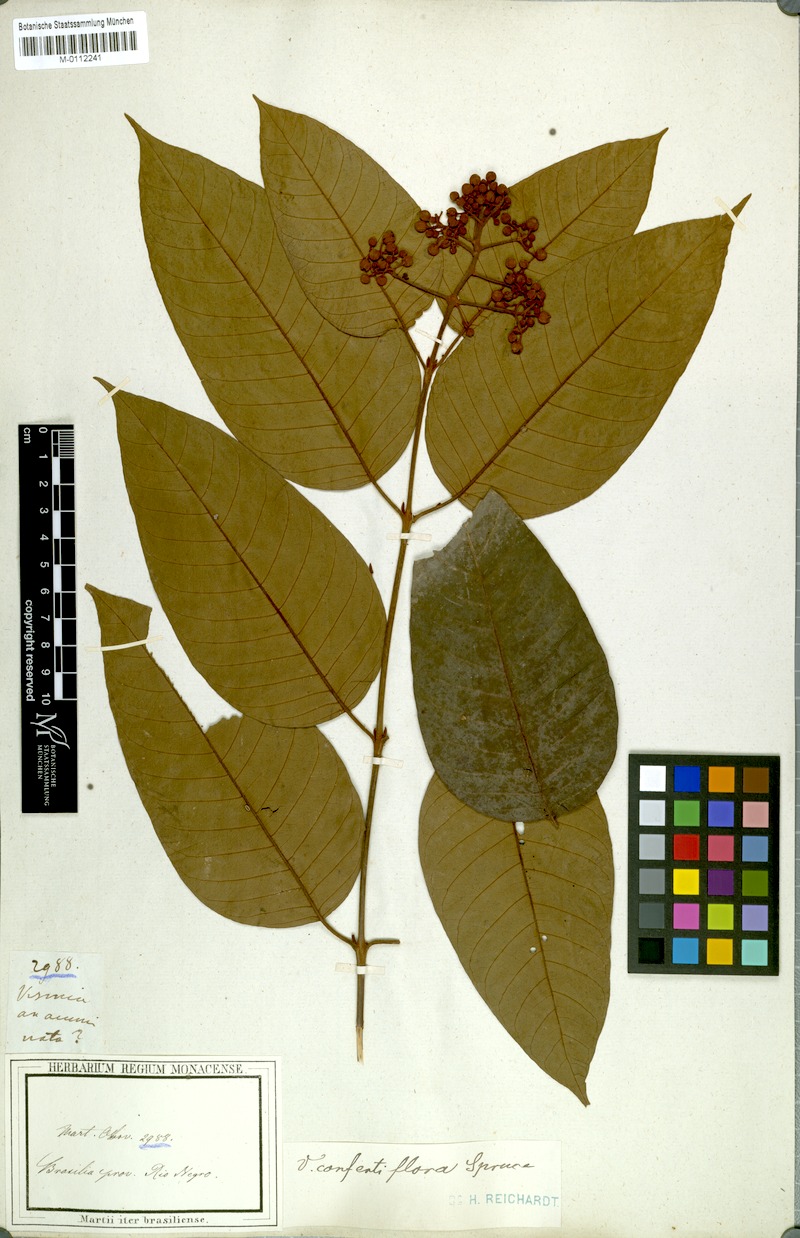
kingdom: Plantae
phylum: Tracheophyta
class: Magnoliopsida
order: Malpighiales
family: Hypericaceae
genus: Vismia
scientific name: Vismia baccifera
